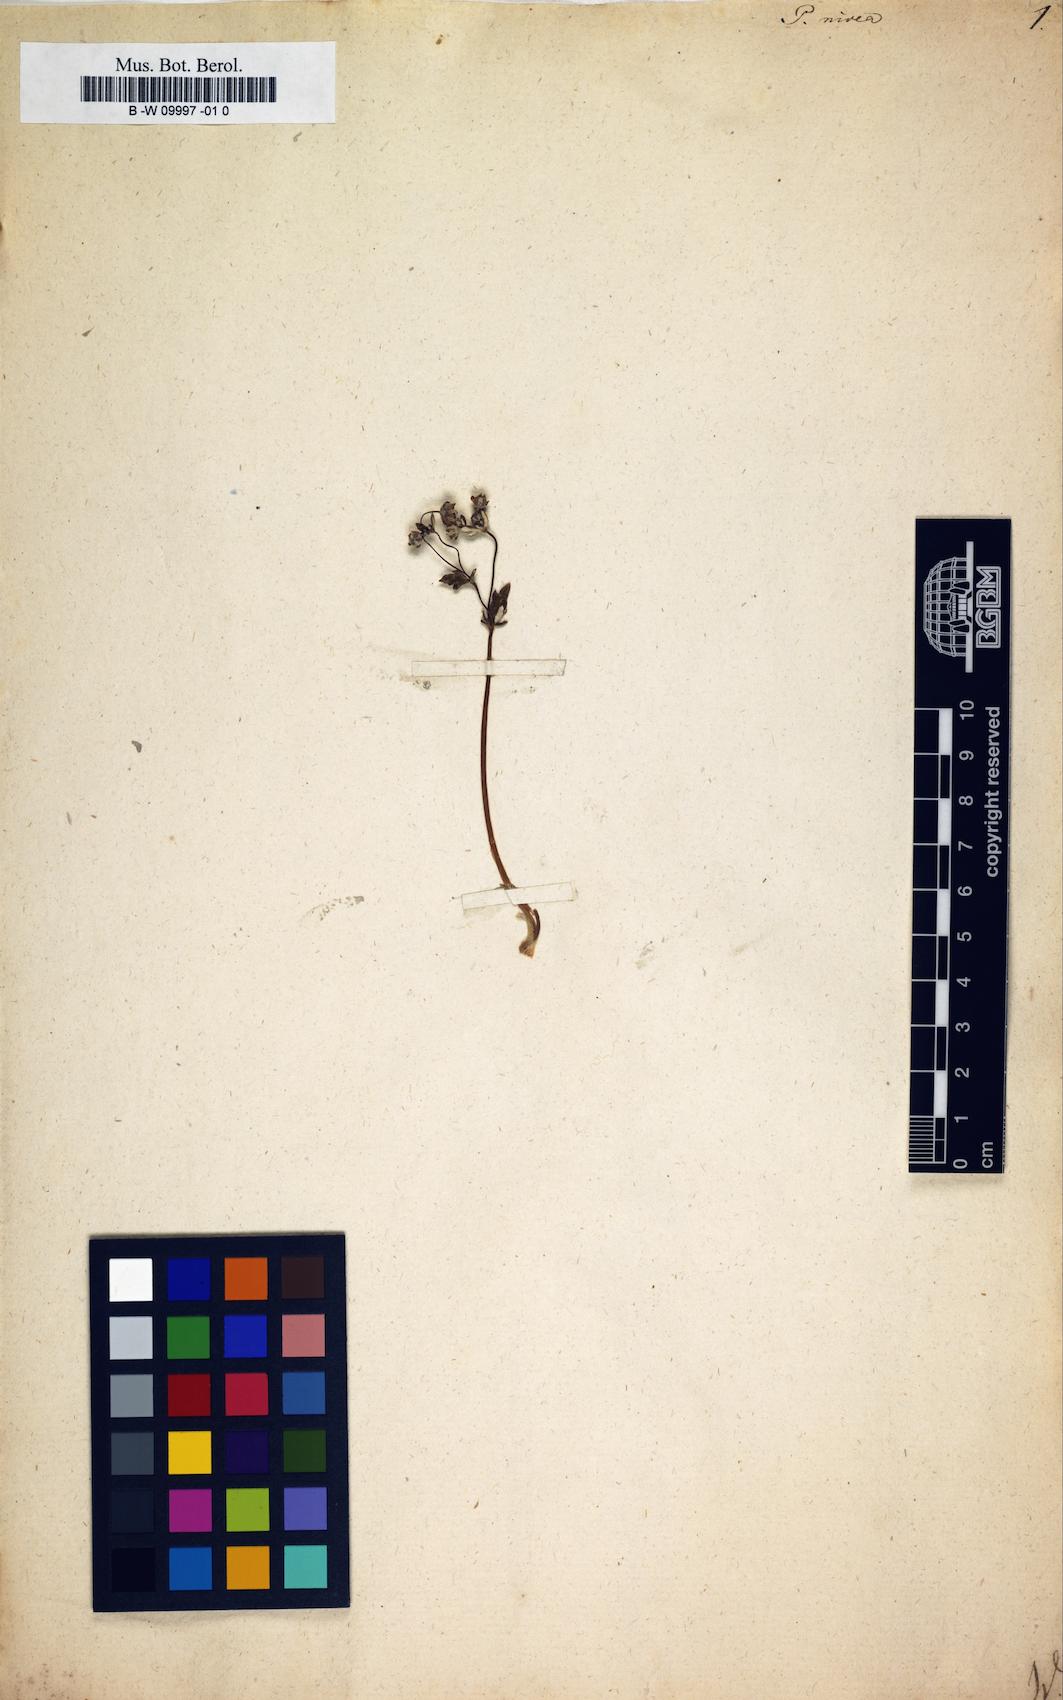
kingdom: Plantae
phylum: Tracheophyta
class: Magnoliopsida
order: Rosales
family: Rosaceae
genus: Potentilla
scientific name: Potentilla nivea
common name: Snow cinquefoil
